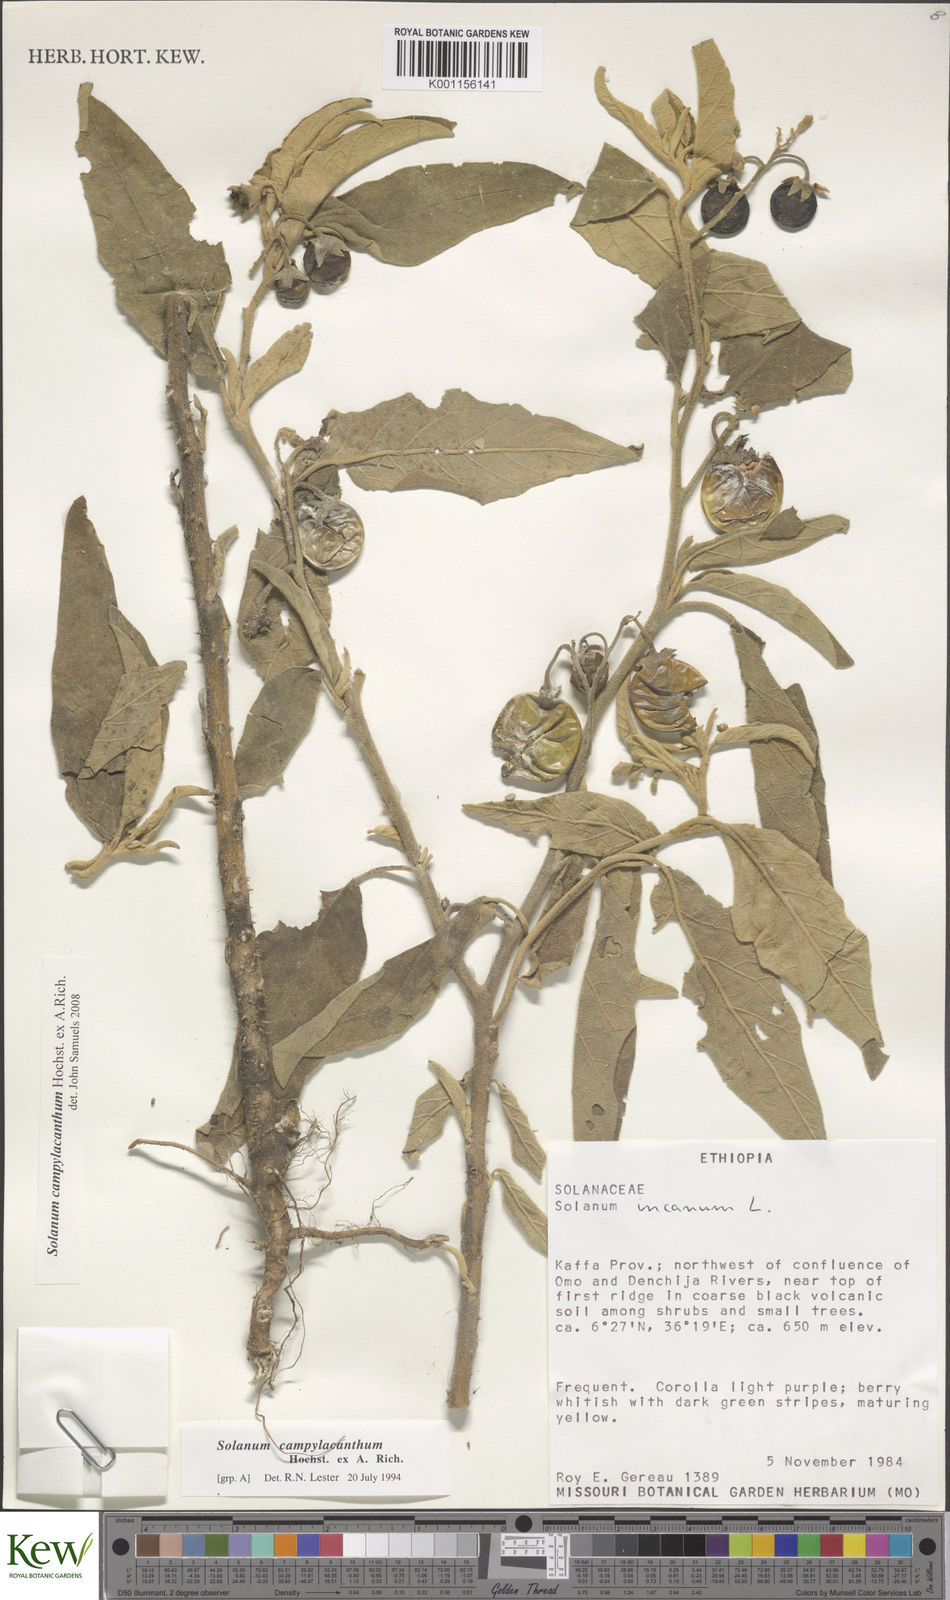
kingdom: Plantae
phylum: Tracheophyta
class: Magnoliopsida
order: Solanales
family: Solanaceae
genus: Solanum
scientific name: Solanum campylacanthum
